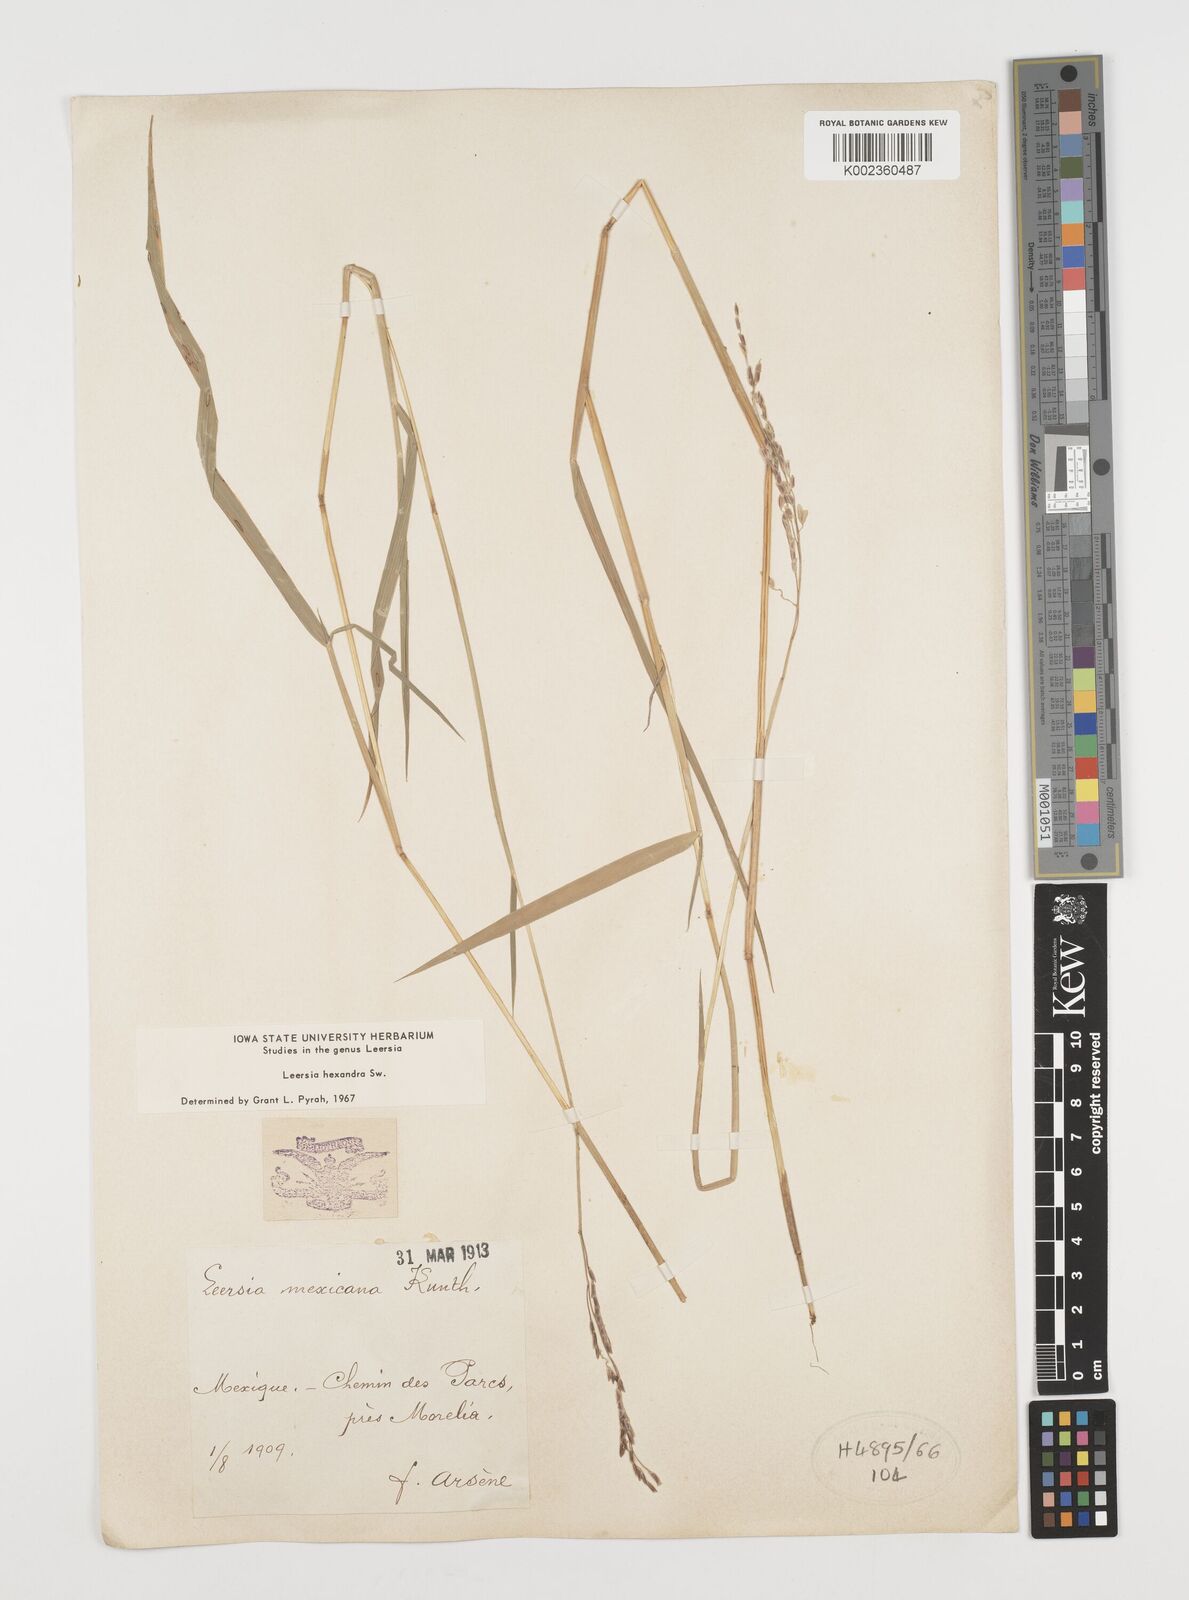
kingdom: Plantae
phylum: Tracheophyta
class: Liliopsida
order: Poales
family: Poaceae
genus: Leersia
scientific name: Leersia hexandra
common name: Southern cut grass
